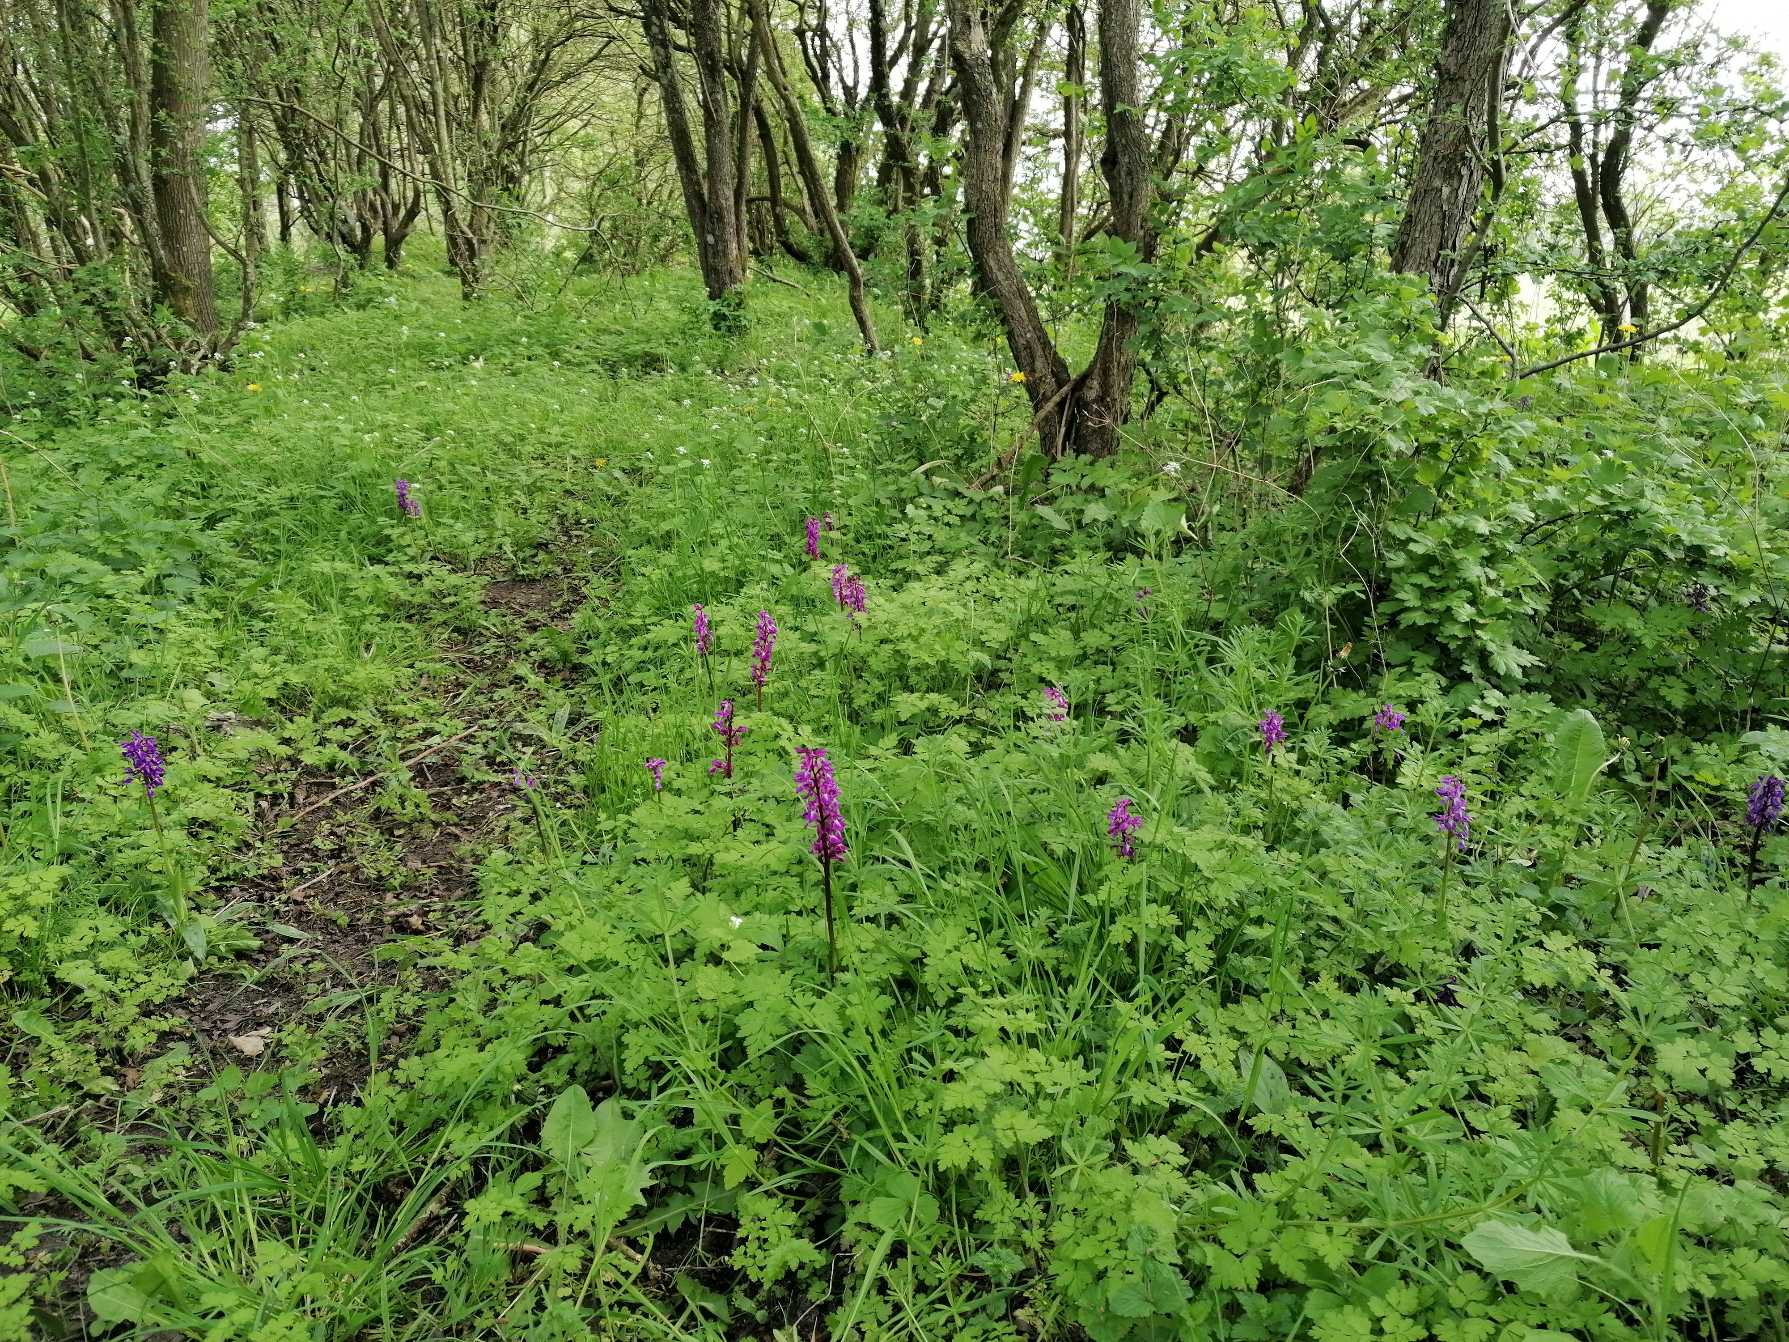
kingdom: Plantae
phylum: Tracheophyta
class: Liliopsida
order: Asparagales
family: Orchidaceae
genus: Orchis
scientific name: Orchis mascula
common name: Tyndakset gøgeurt
